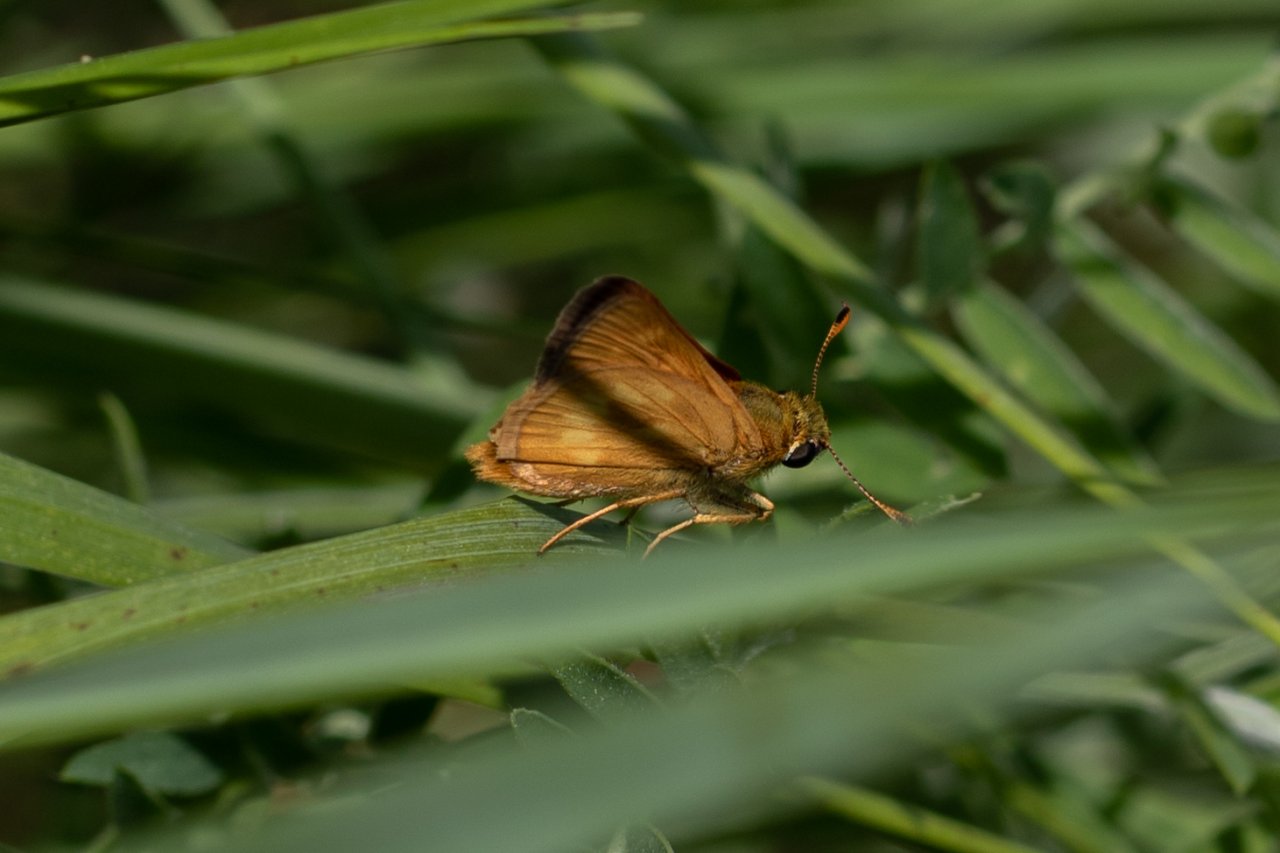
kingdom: Animalia
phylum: Arthropoda
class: Insecta
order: Lepidoptera
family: Hesperiidae
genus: Polites
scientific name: Polites
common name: Long Dash Skipper
